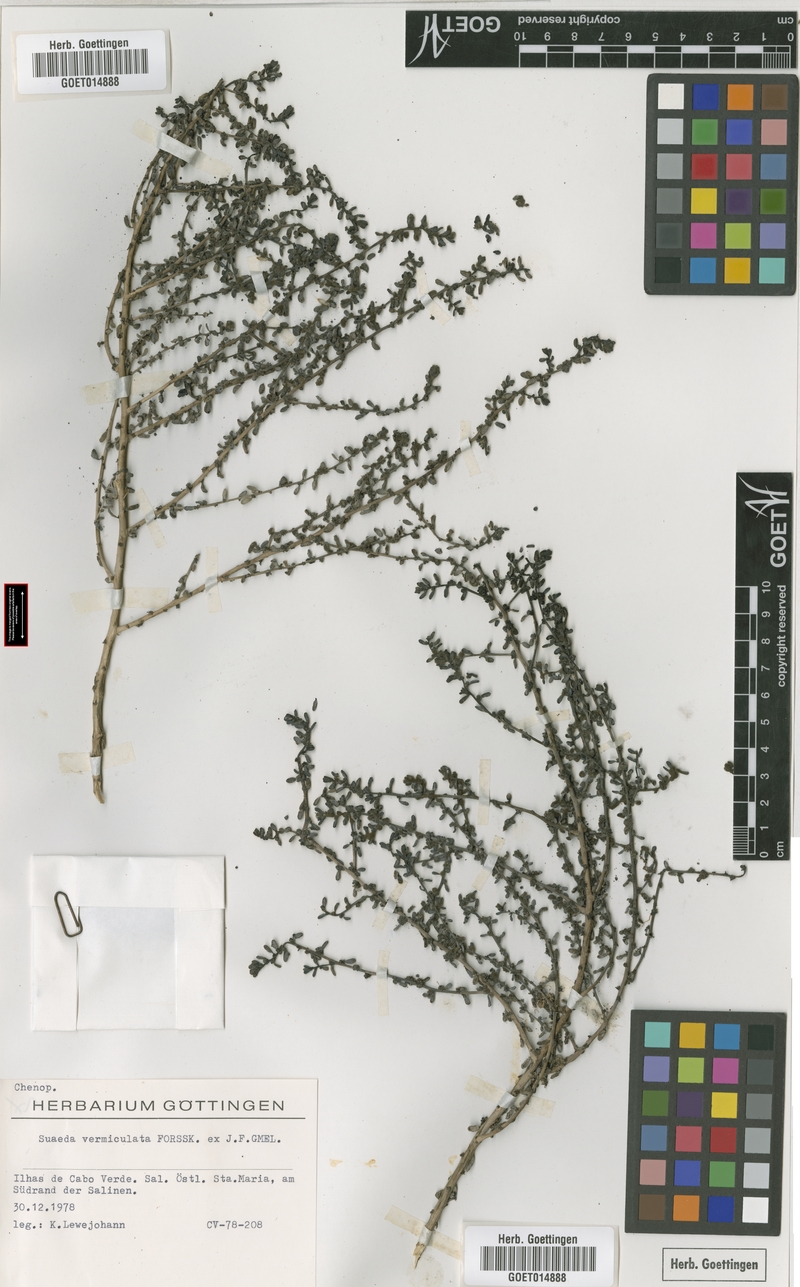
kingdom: Plantae
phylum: Tracheophyta
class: Magnoliopsida
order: Caryophyllales
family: Amaranthaceae
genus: Suaeda
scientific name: Suaeda vermiculata
